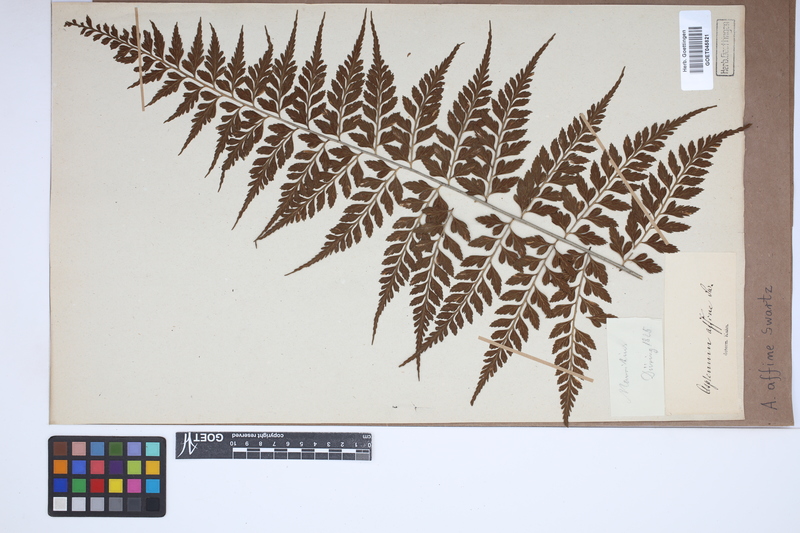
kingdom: Plantae
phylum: Tracheophyta
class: Polypodiopsida
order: Polypodiales
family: Aspleniaceae
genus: Asplenium
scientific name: Asplenium affine
